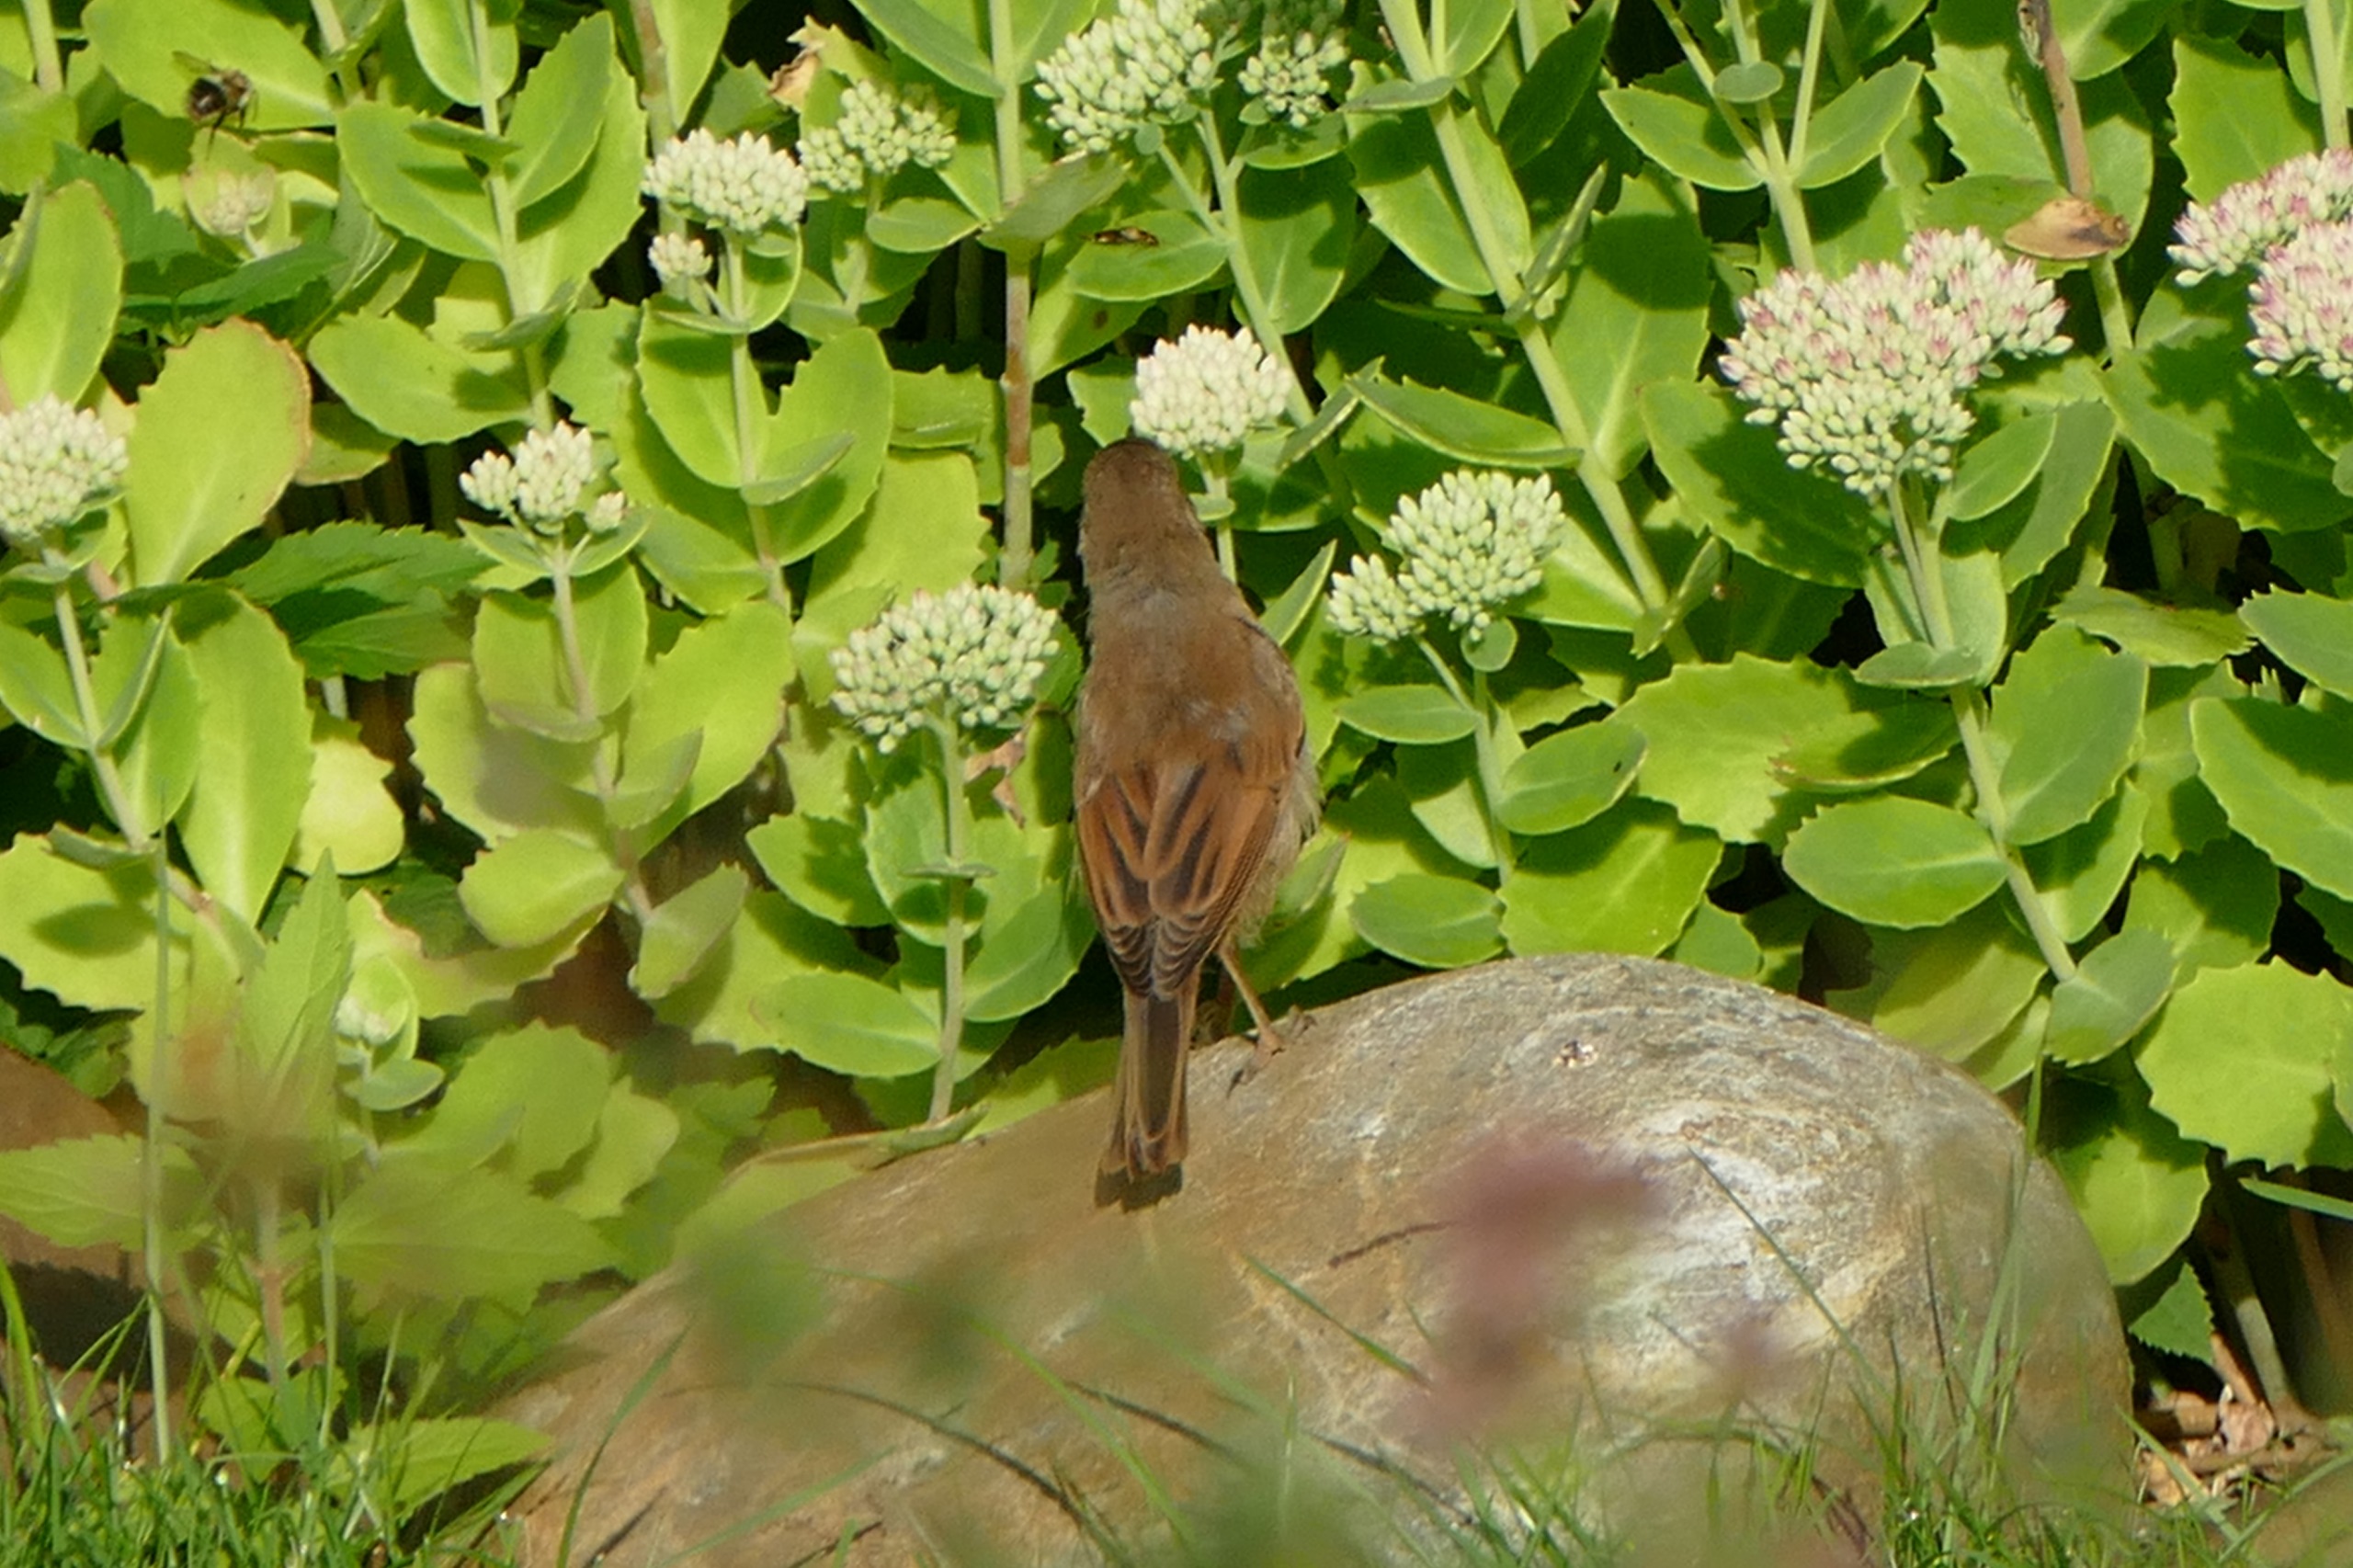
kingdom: Animalia
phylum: Chordata
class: Aves
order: Passeriformes
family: Sylviidae
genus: Sylvia
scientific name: Sylvia communis
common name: Tornsanger
